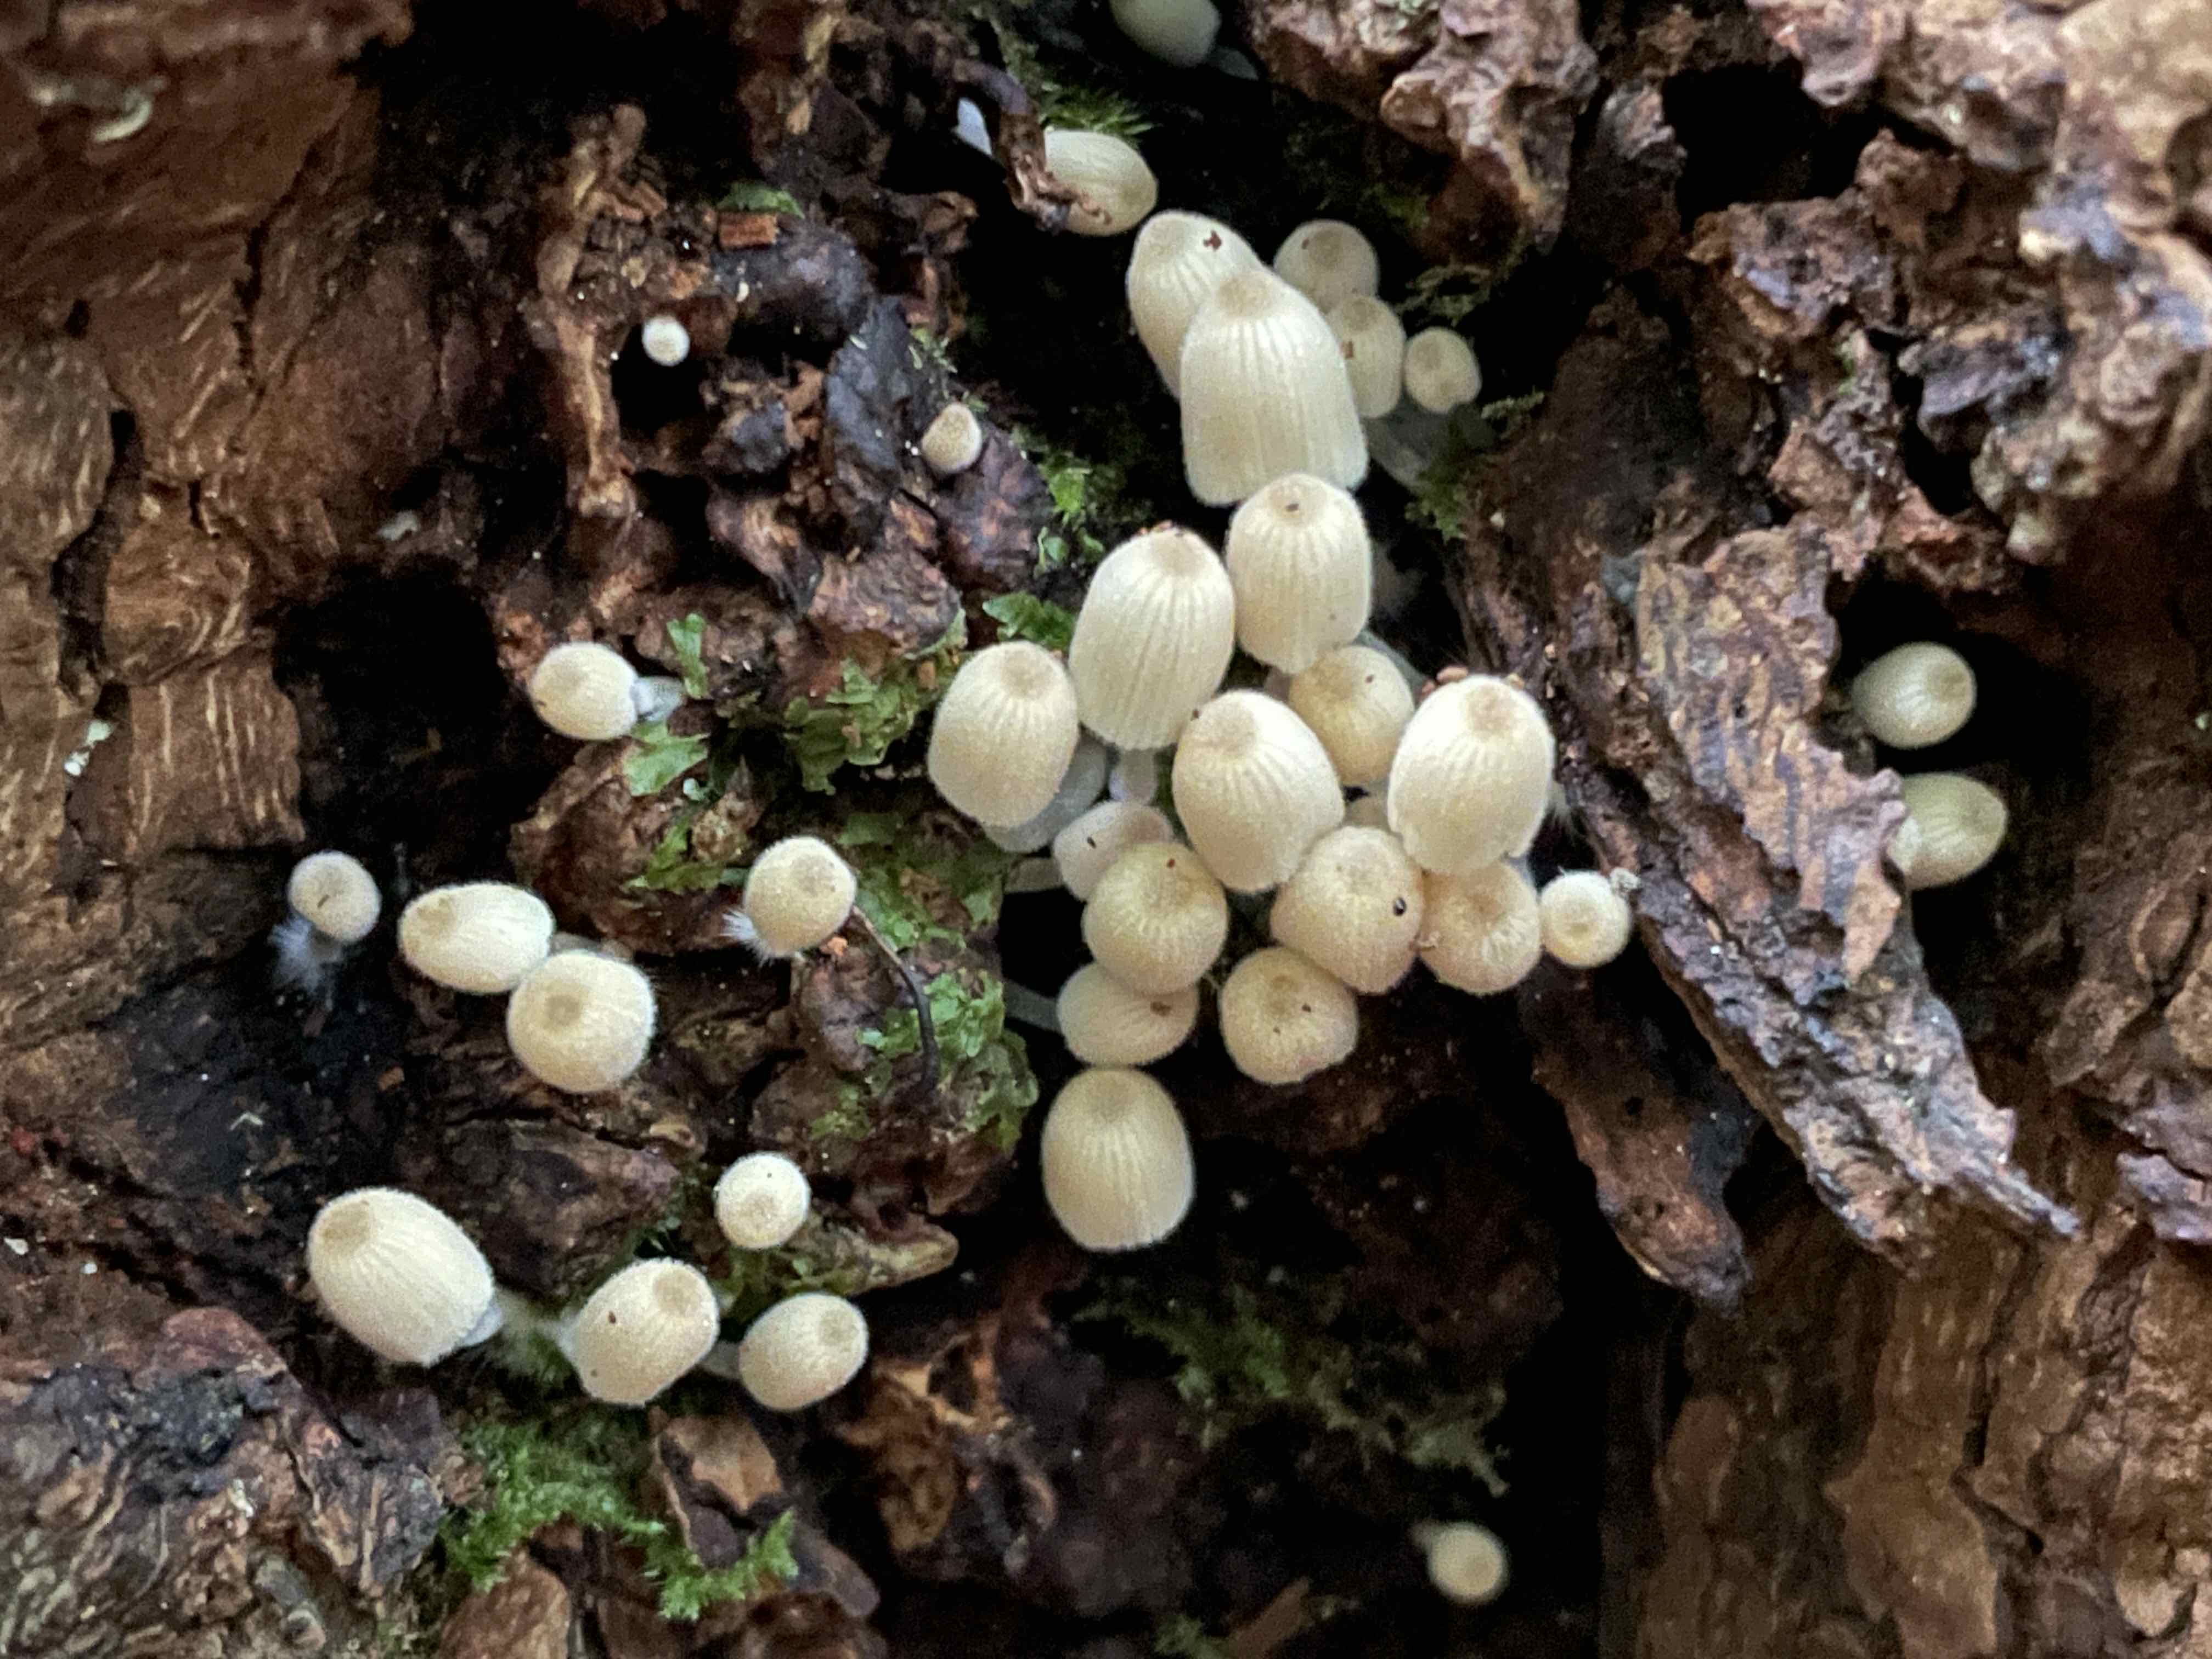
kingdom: Fungi
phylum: Basidiomycota
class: Agaricomycetes
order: Agaricales
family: Psathyrellaceae
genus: Coprinellus
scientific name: Coprinellus disseminatus
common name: bredsået blækhat
